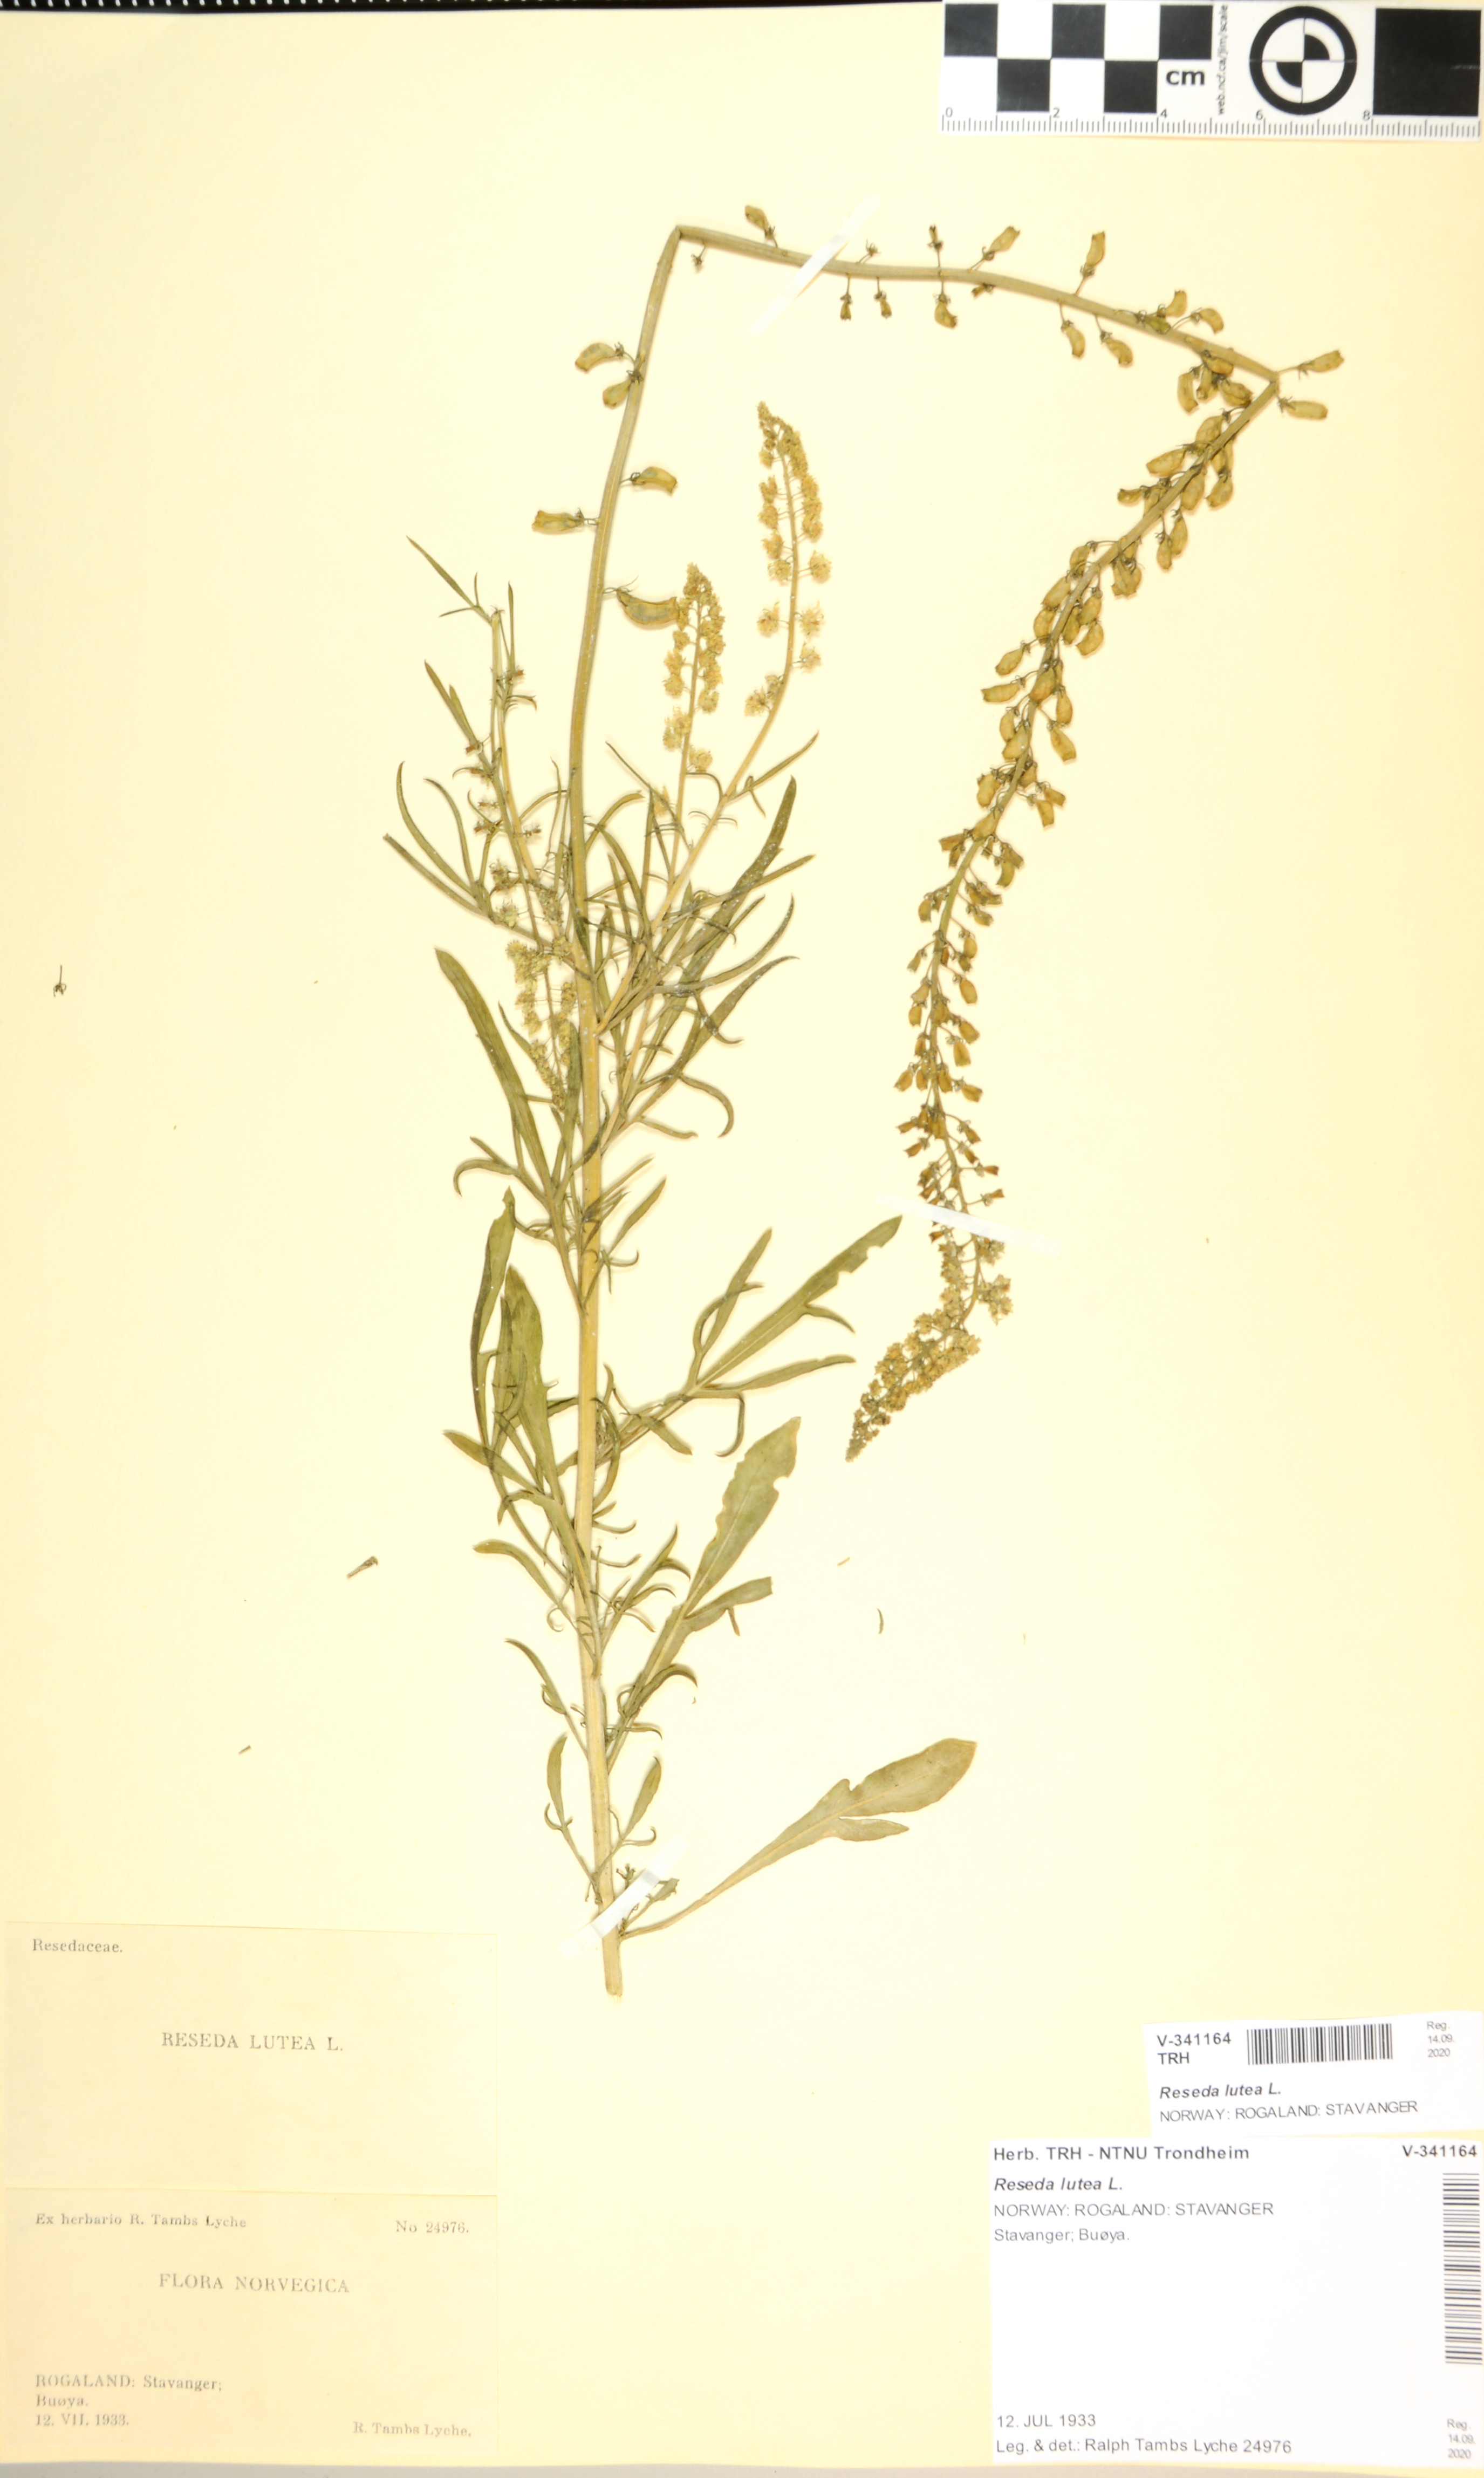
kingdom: Plantae
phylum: Tracheophyta
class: Magnoliopsida
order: Brassicales
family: Resedaceae
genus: Reseda
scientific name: Reseda lutea
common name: Wild mignonette
